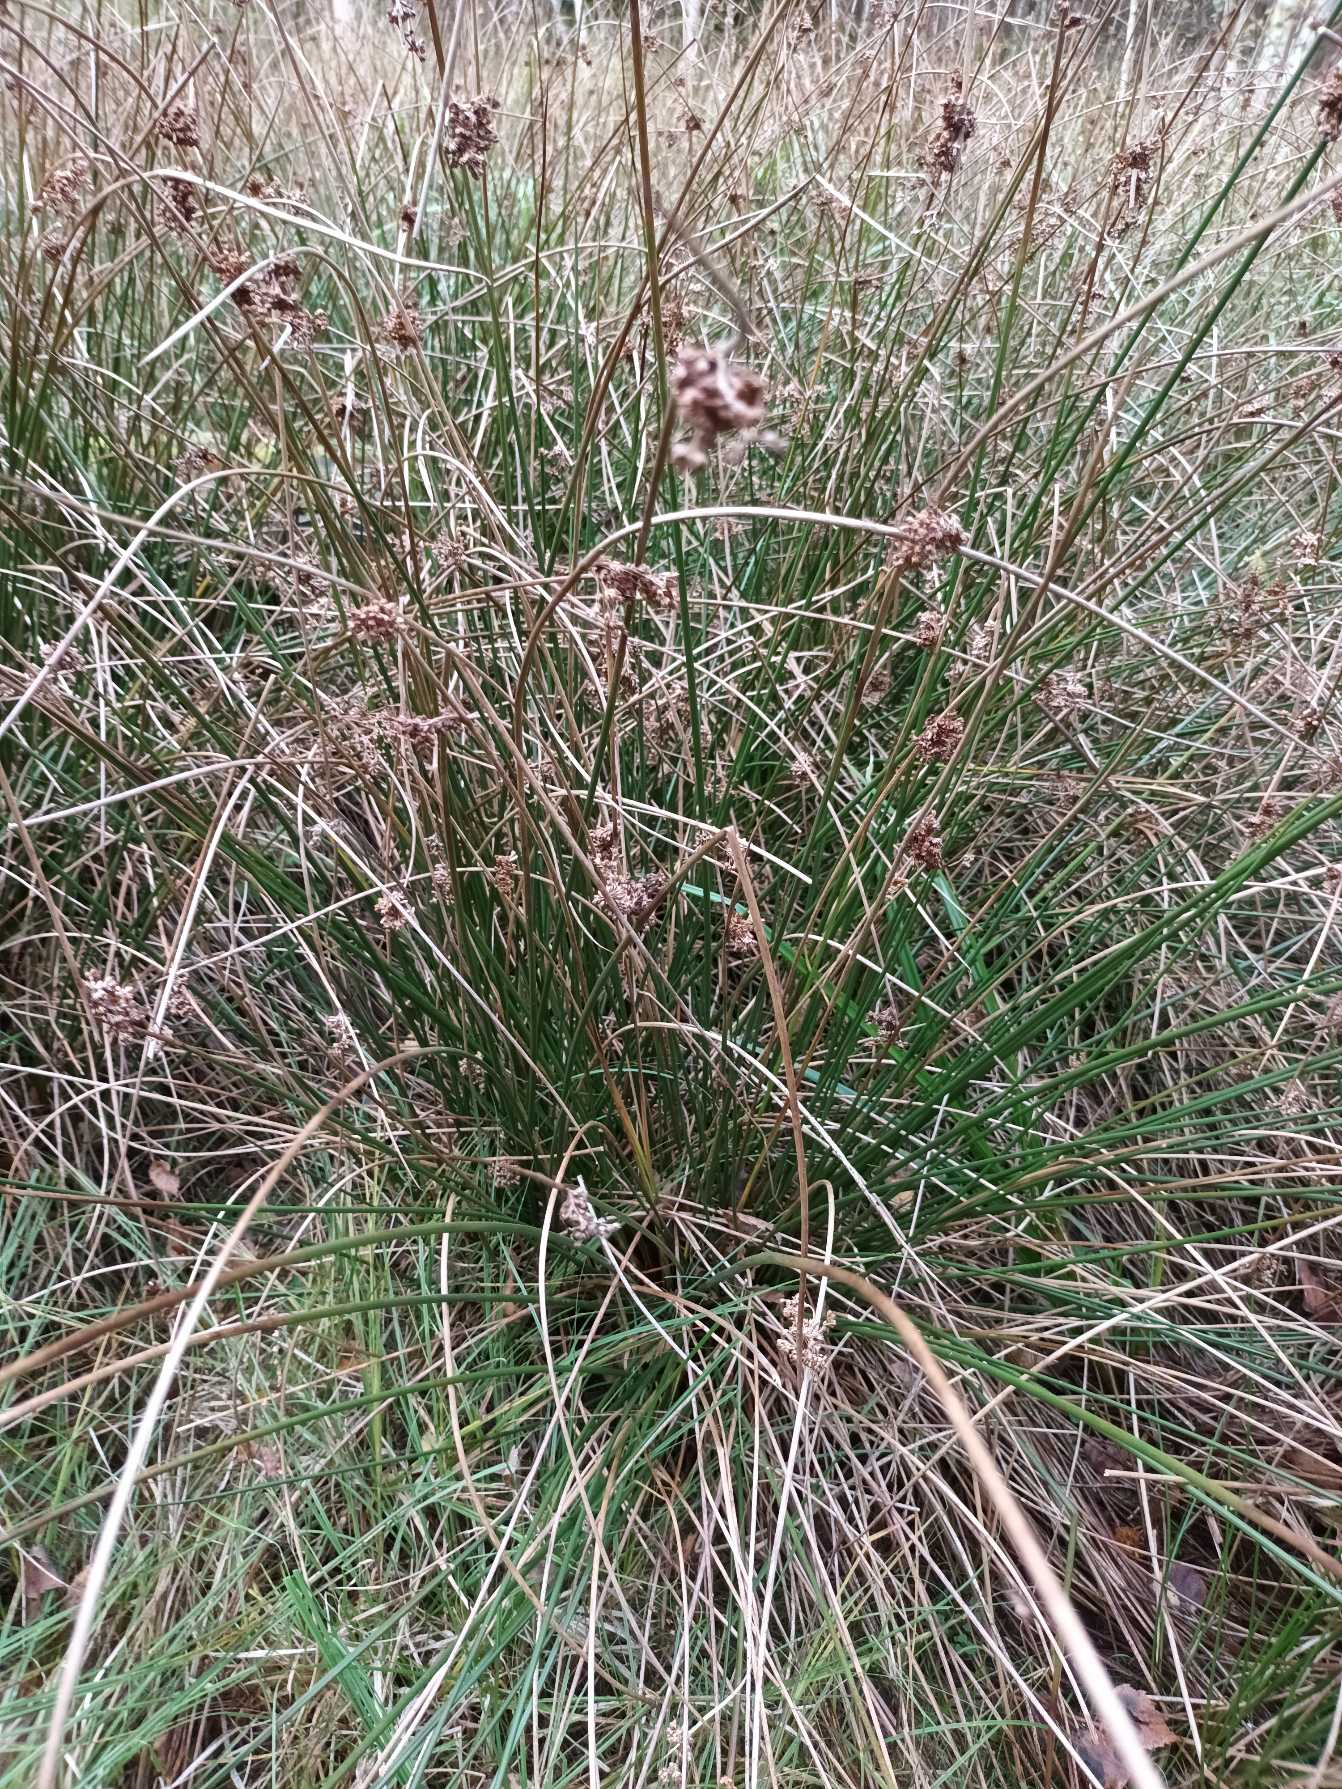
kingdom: Plantae
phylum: Tracheophyta
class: Liliopsida
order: Poales
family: Juncaceae
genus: Juncus
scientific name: Juncus effusus
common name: Lyse-siv
